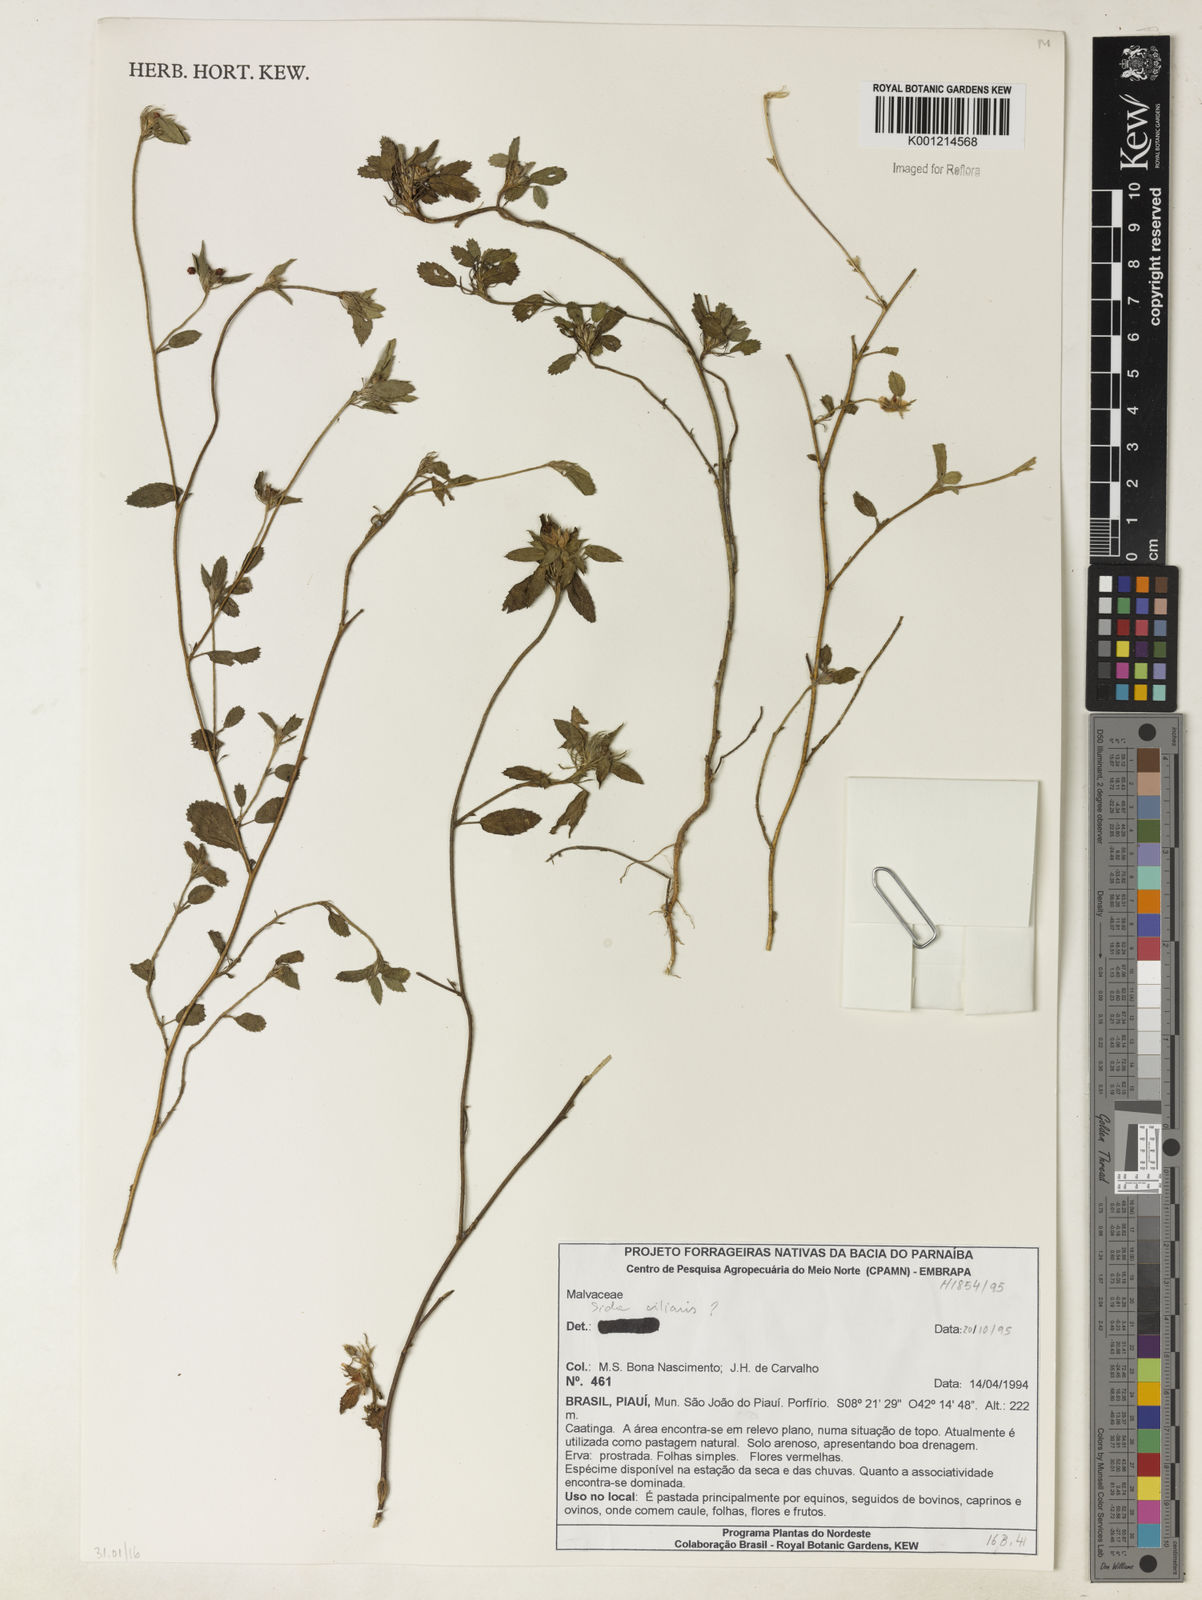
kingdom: Plantae
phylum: Tracheophyta
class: Magnoliopsida
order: Malvales
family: Malvaceae
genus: Sida
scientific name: Sida ciliaris
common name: Bracted fanpetals
